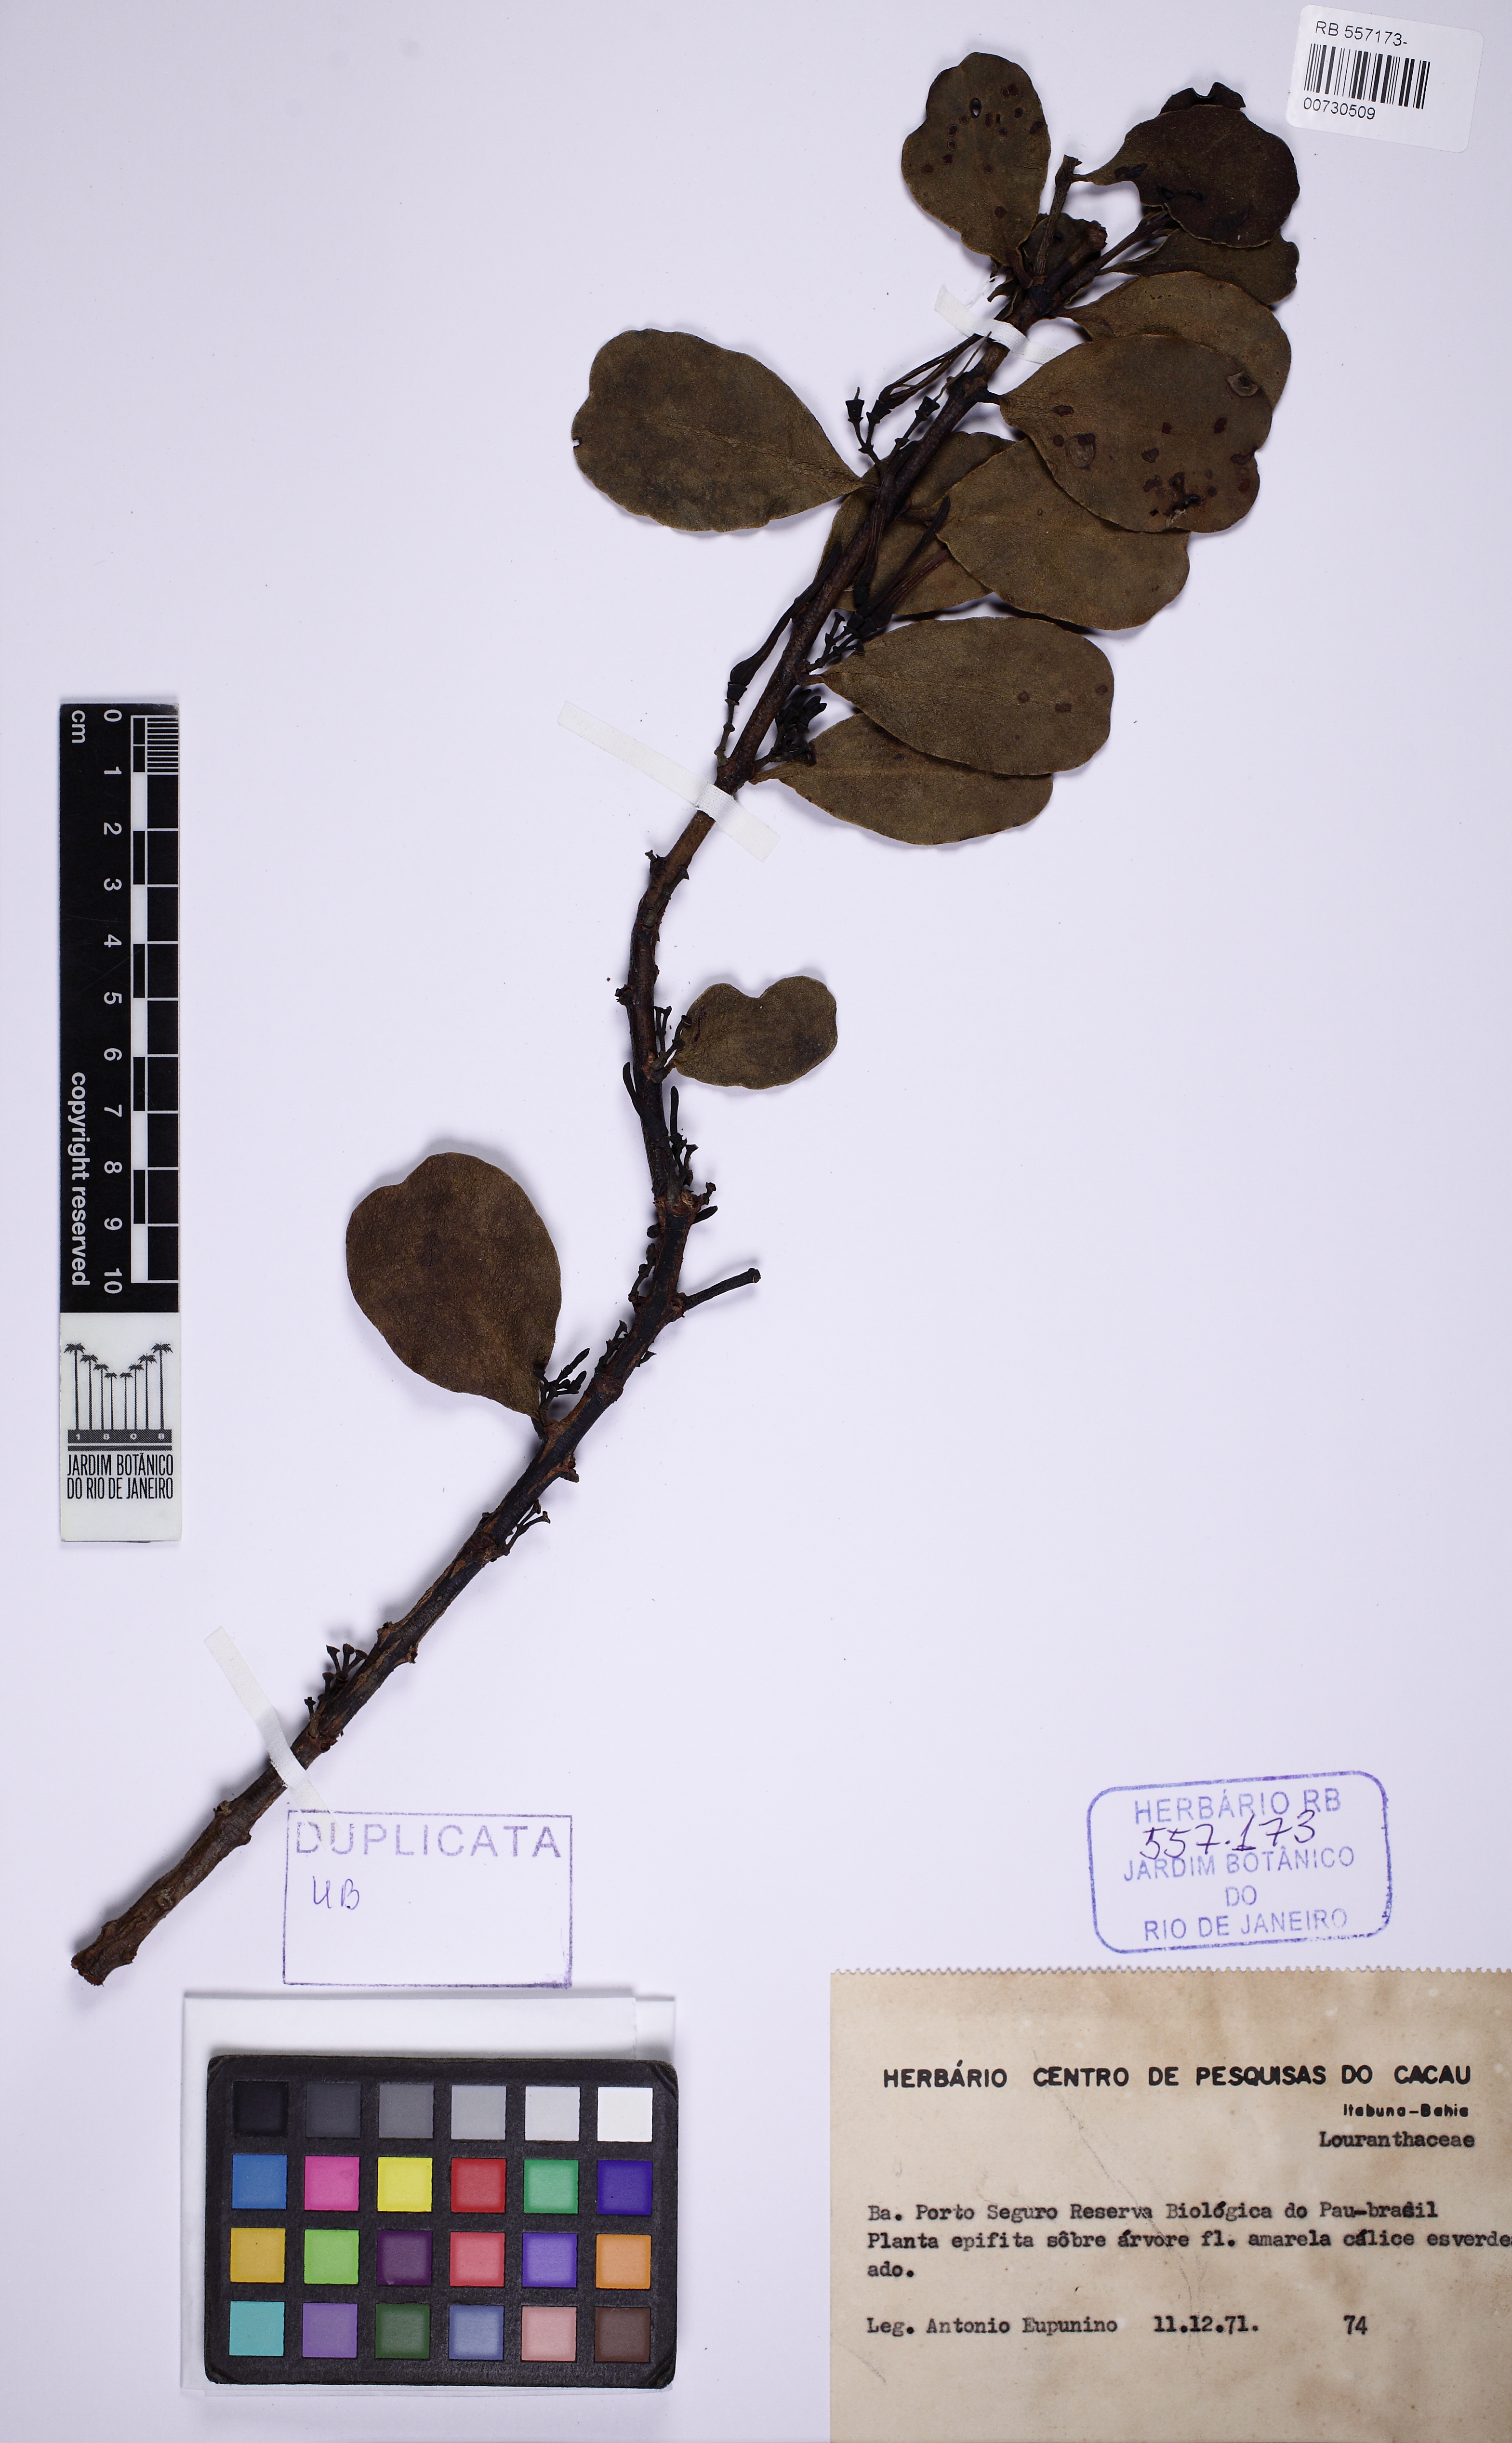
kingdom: Plantae
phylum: Tracheophyta
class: Magnoliopsida
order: Santalales
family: Loranthaceae
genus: Psittacanthus
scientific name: Psittacanthus dichroos
